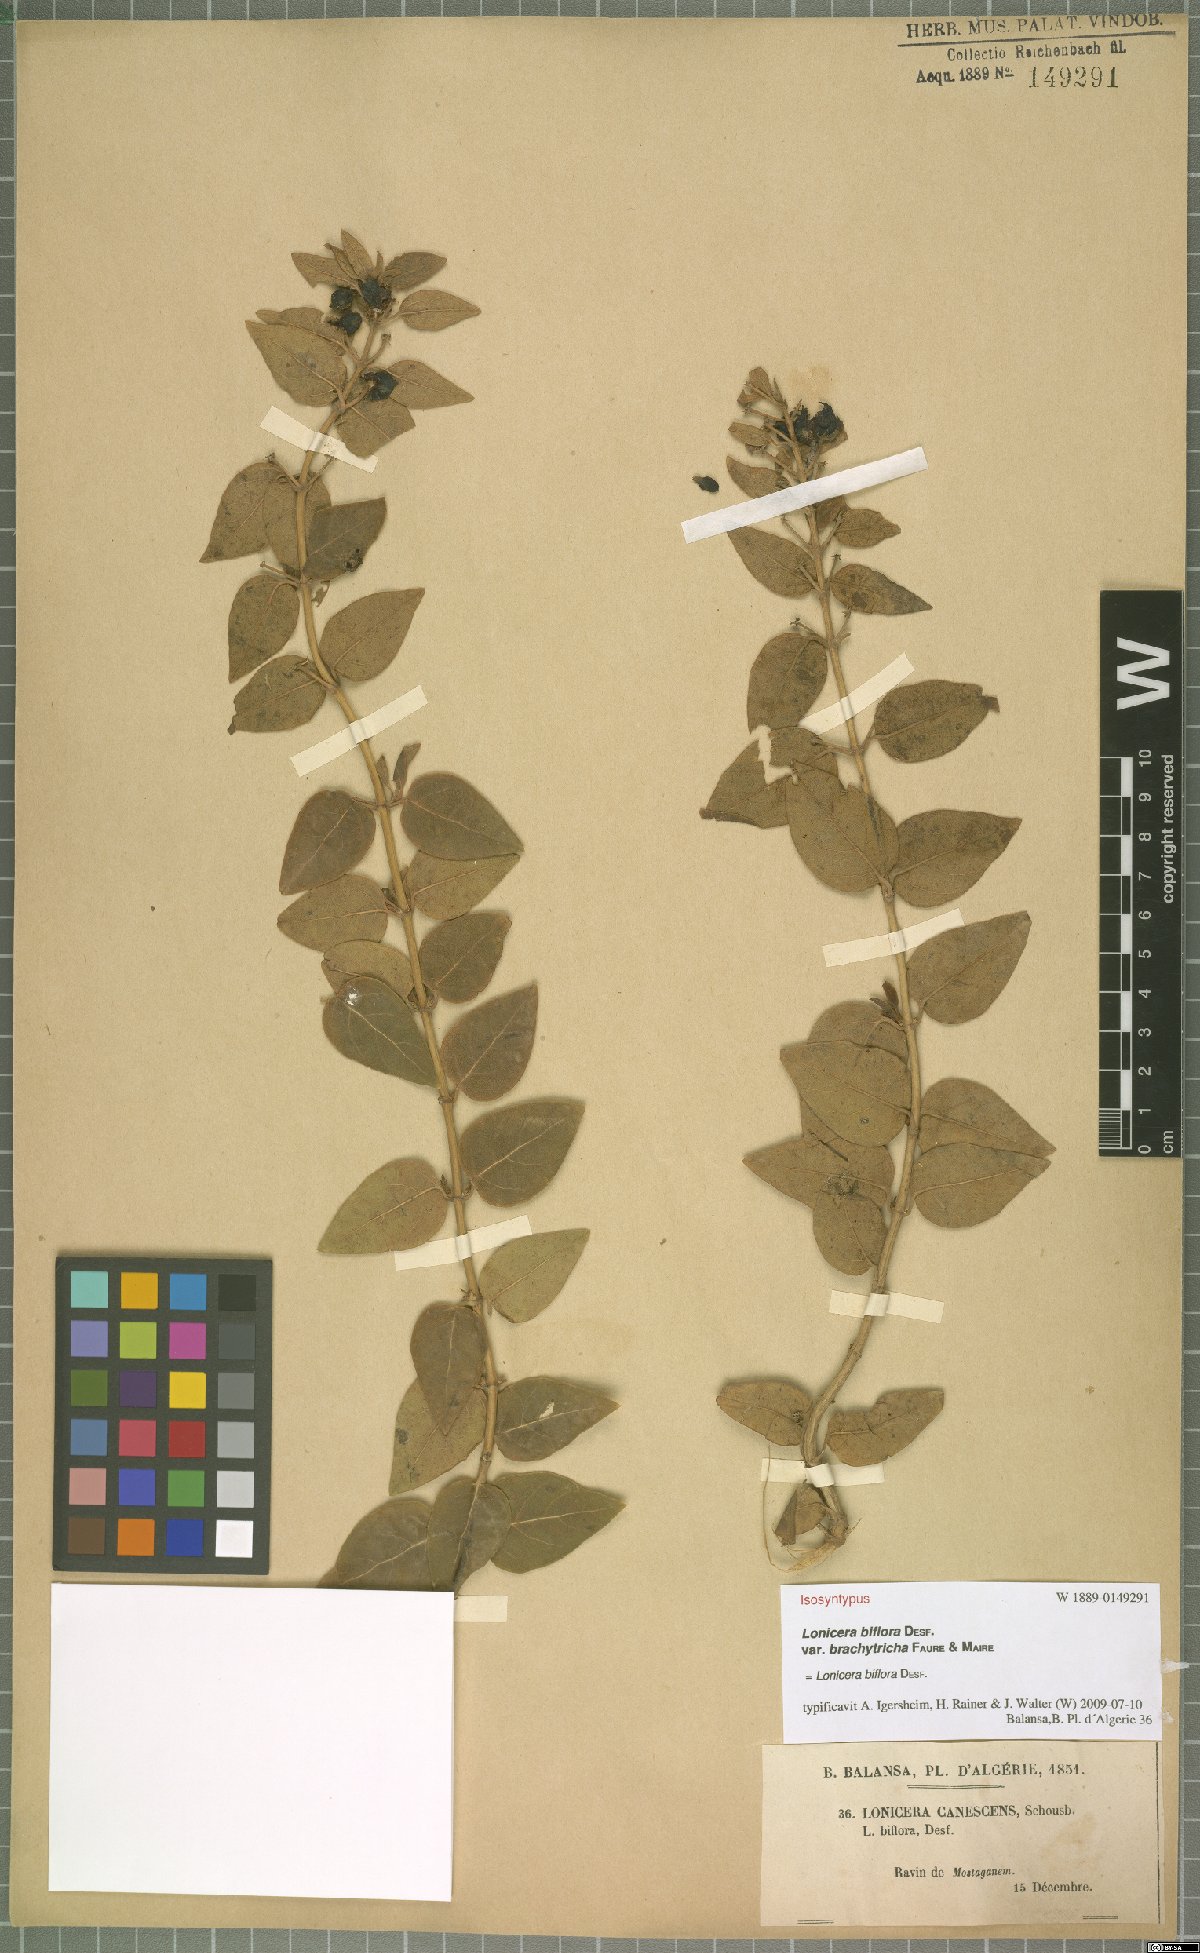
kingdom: Plantae
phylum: Tracheophyta
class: Magnoliopsida
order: Dipsacales
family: Caprifoliaceae
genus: Lonicera
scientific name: Lonicera biflora
